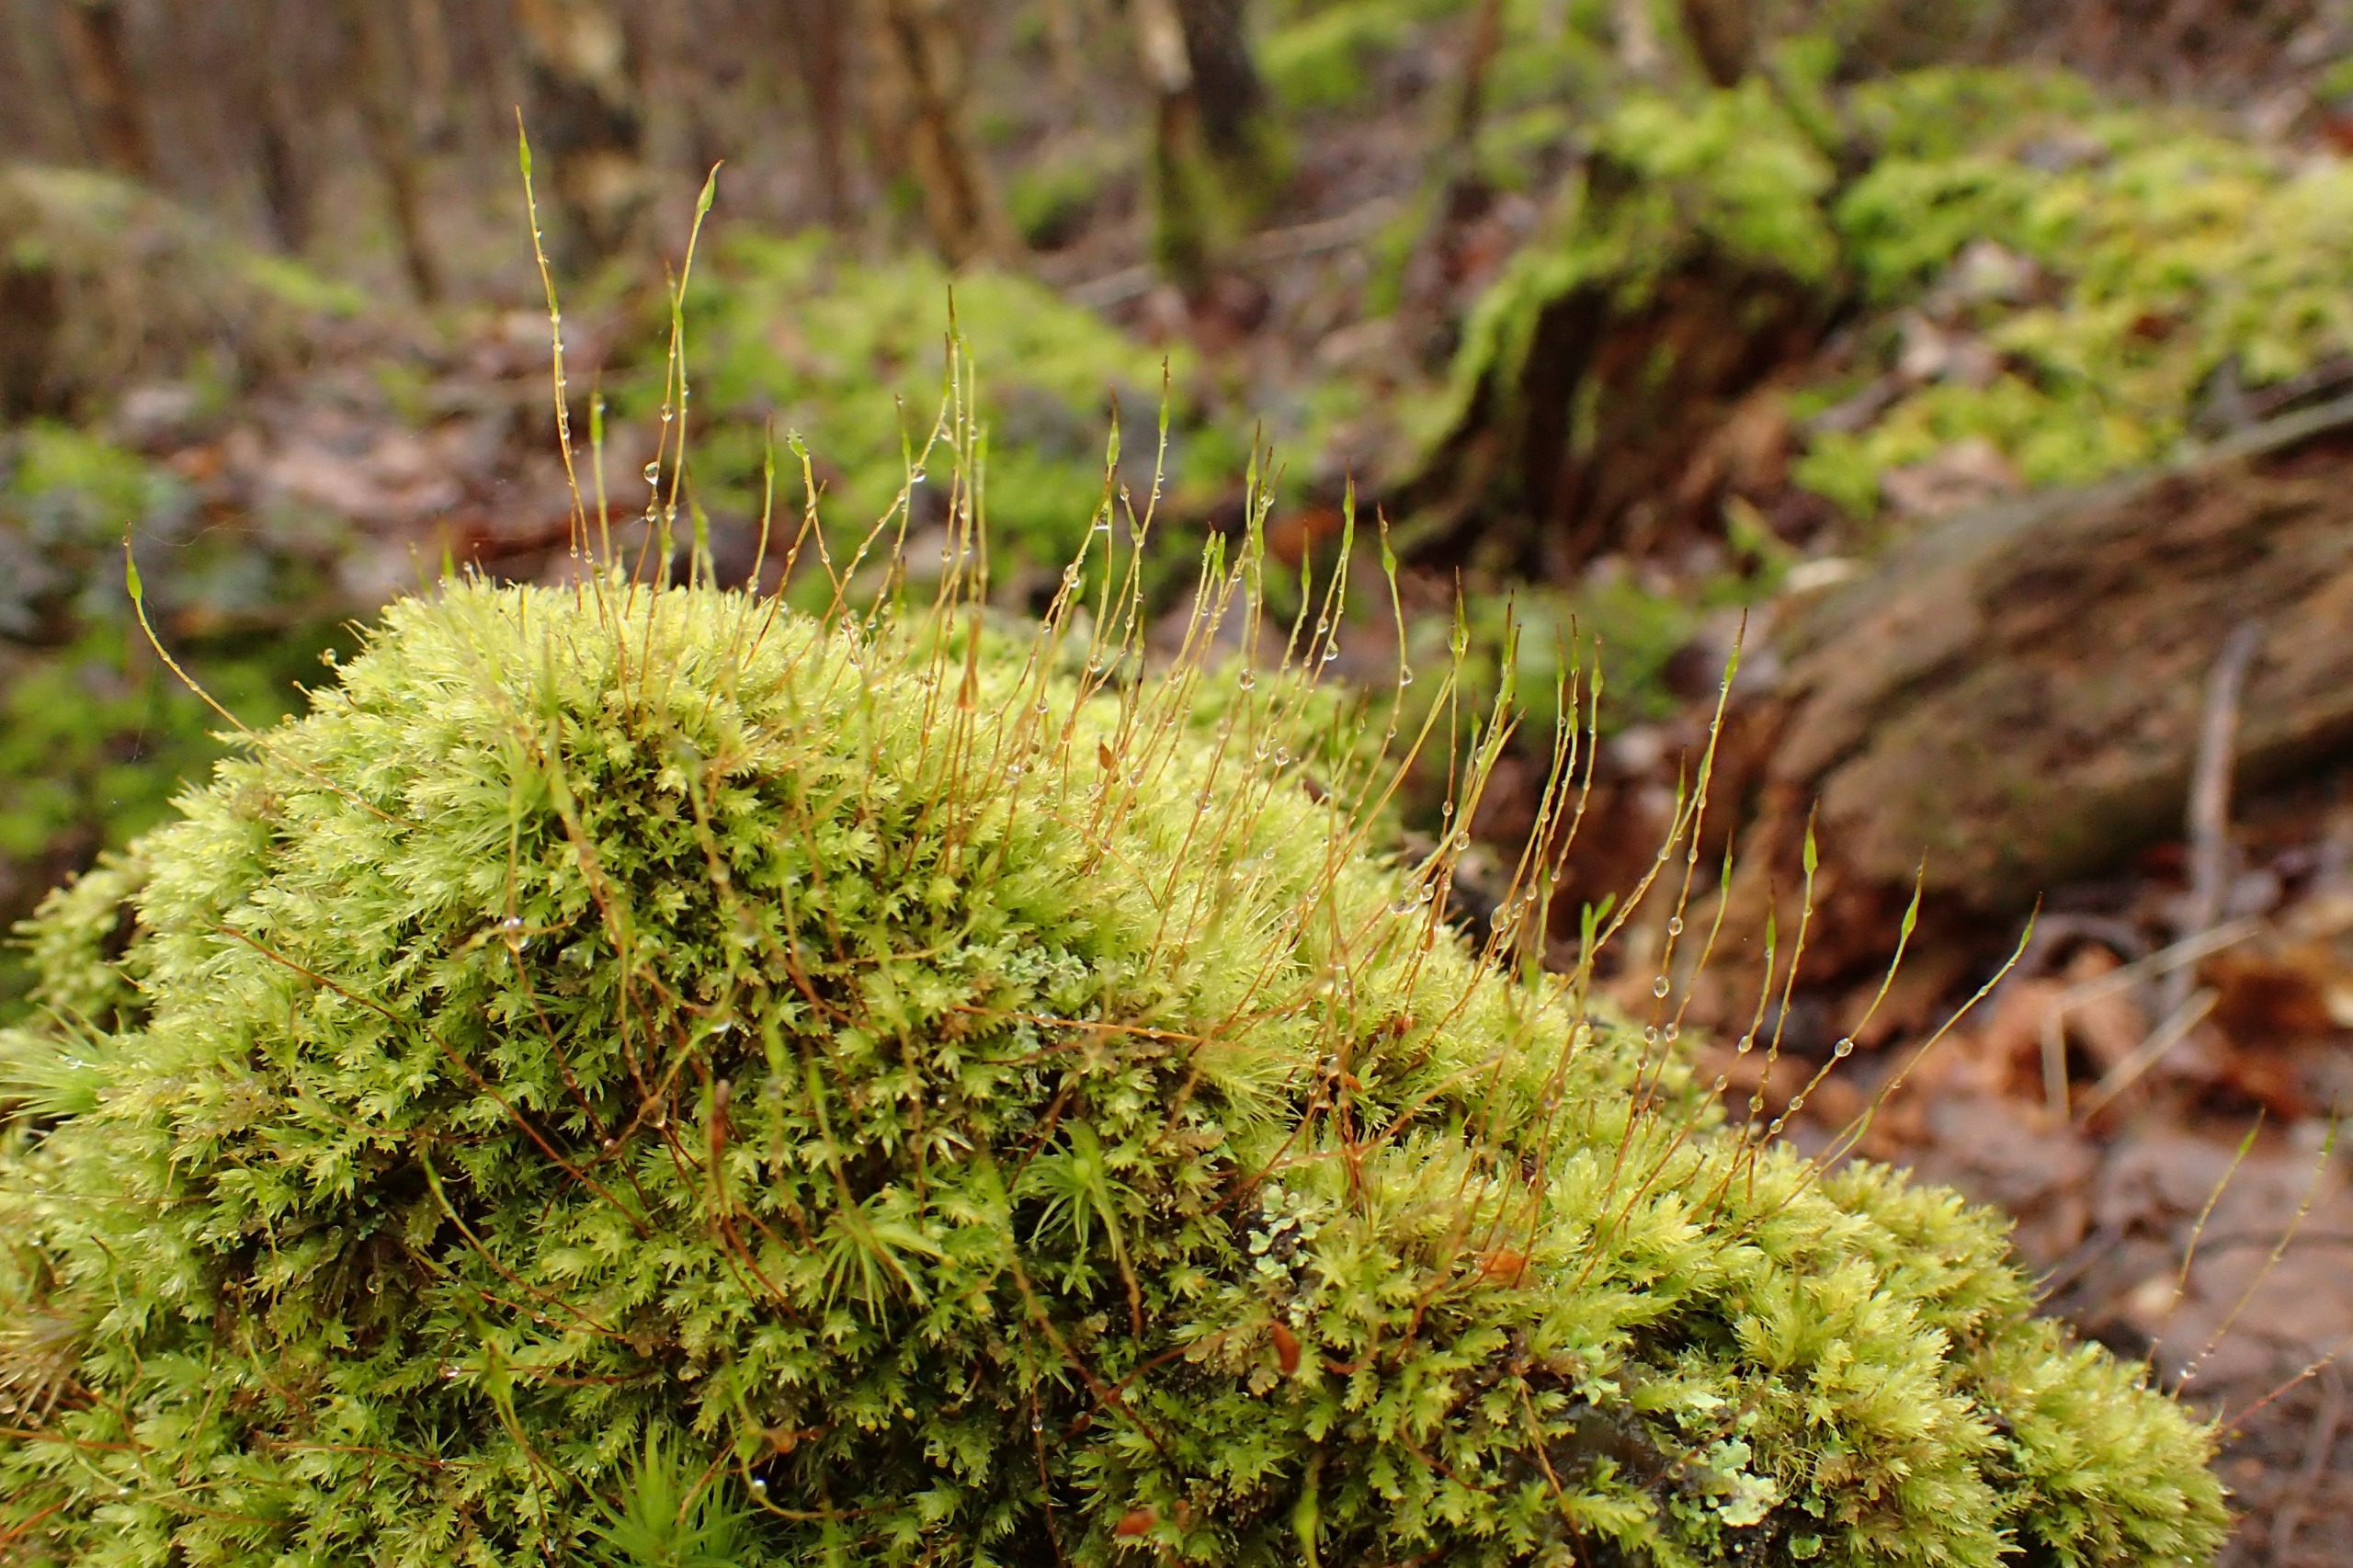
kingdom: Plantae
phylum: Bryophyta
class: Bryopsida
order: Aulacomniales
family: Aulacomniaceae
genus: Aulacomnium
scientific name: Aulacomnium androgynum
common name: Kugle-filtmos
